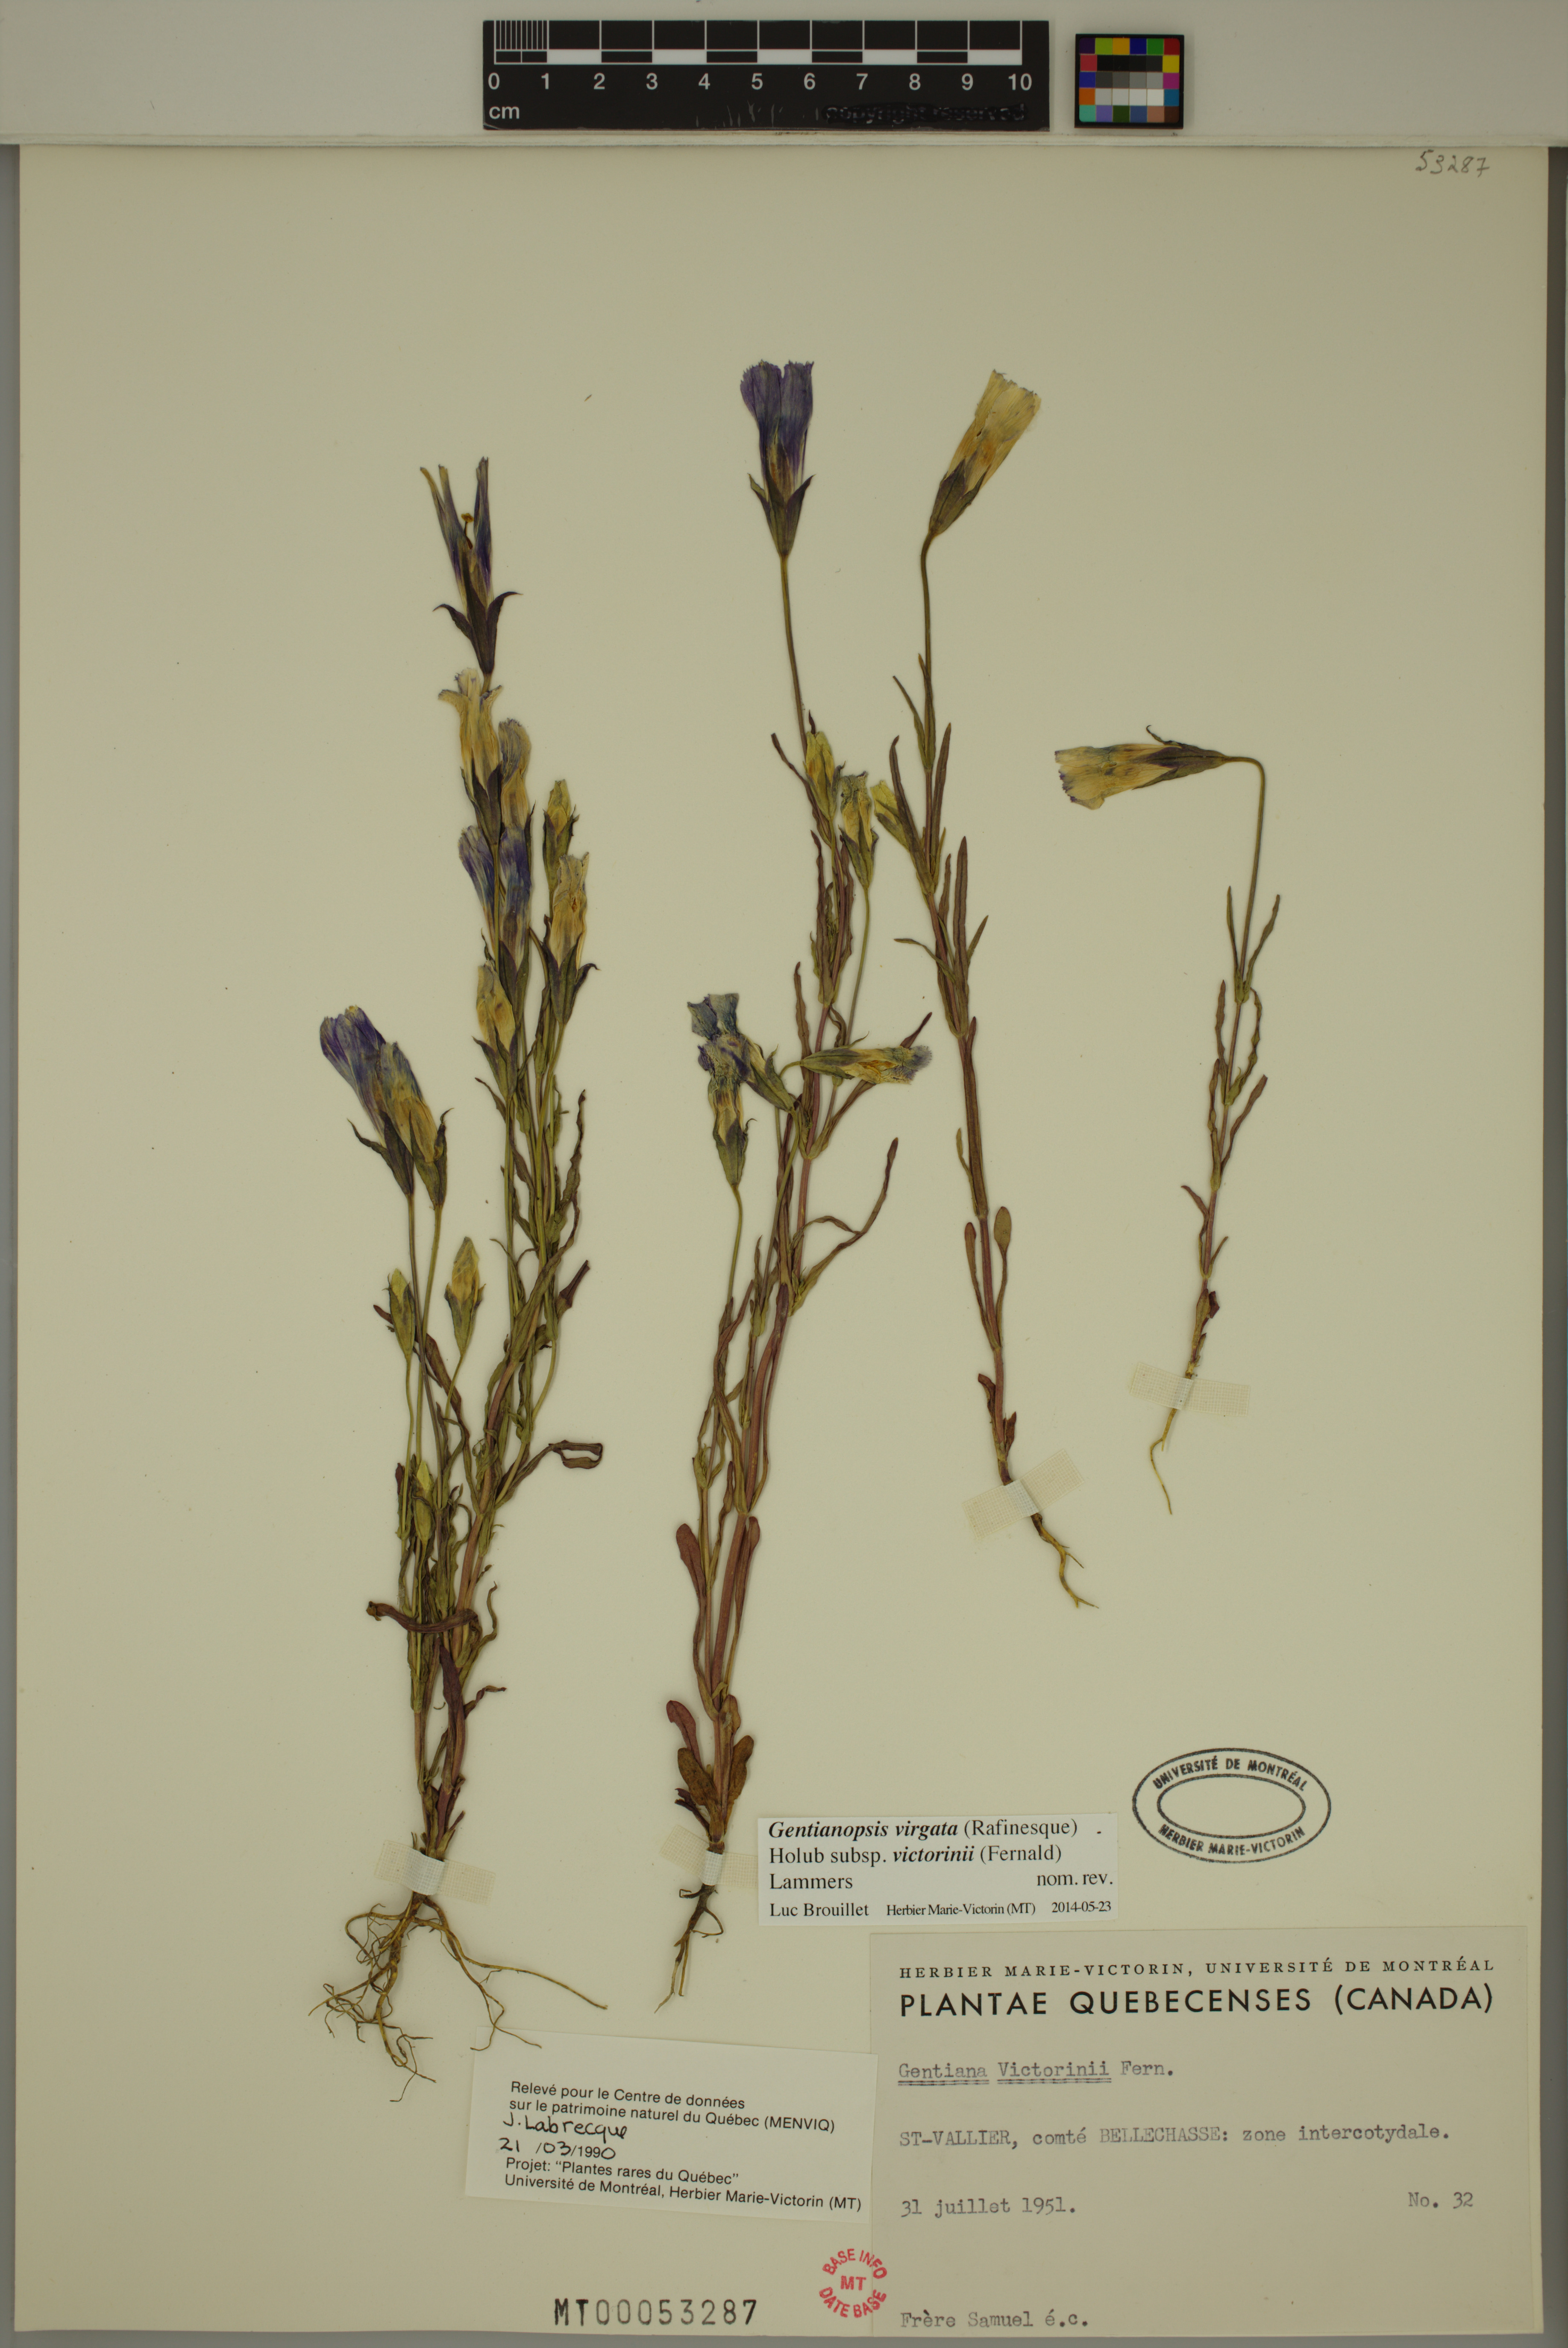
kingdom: Plantae
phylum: Tracheophyta
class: Magnoliopsida
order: Gentianales
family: Gentianaceae
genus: Gentianopsis
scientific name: Gentianopsis victorinii
